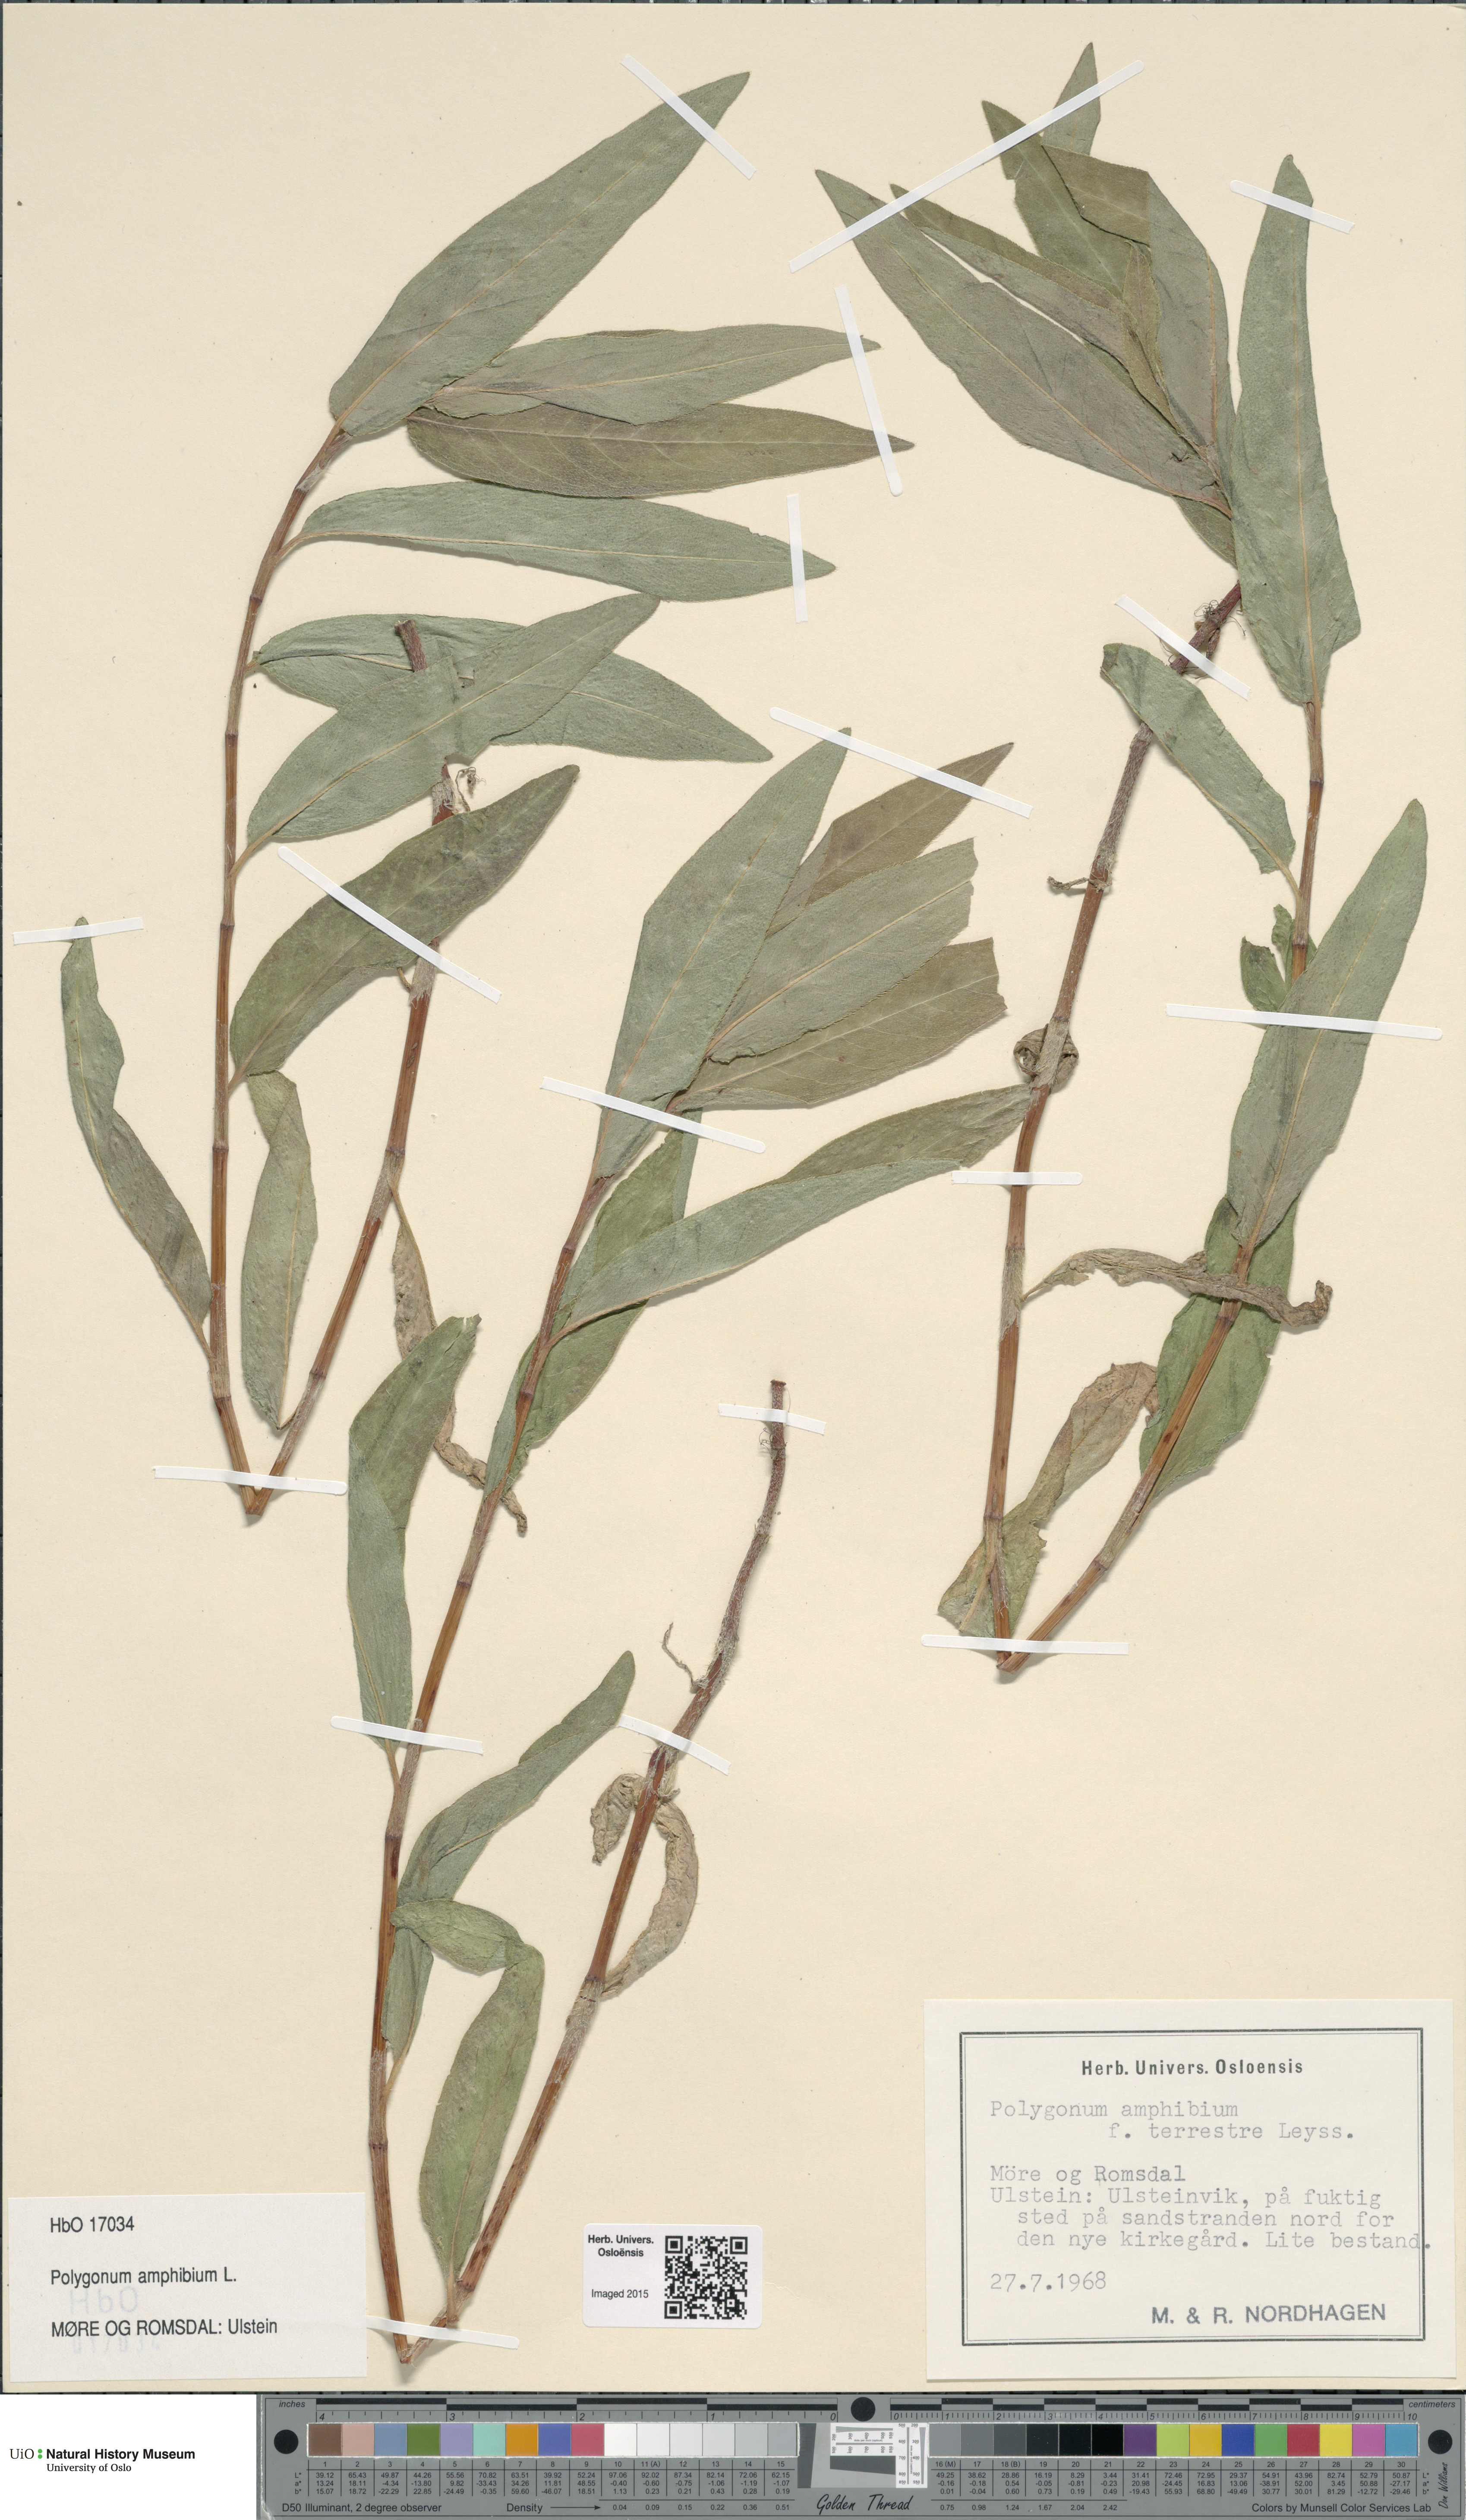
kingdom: Plantae
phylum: Tracheophyta
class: Magnoliopsida
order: Caryophyllales
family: Polygonaceae
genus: Persicaria
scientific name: Persicaria amphibia
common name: Amphibious bistort
